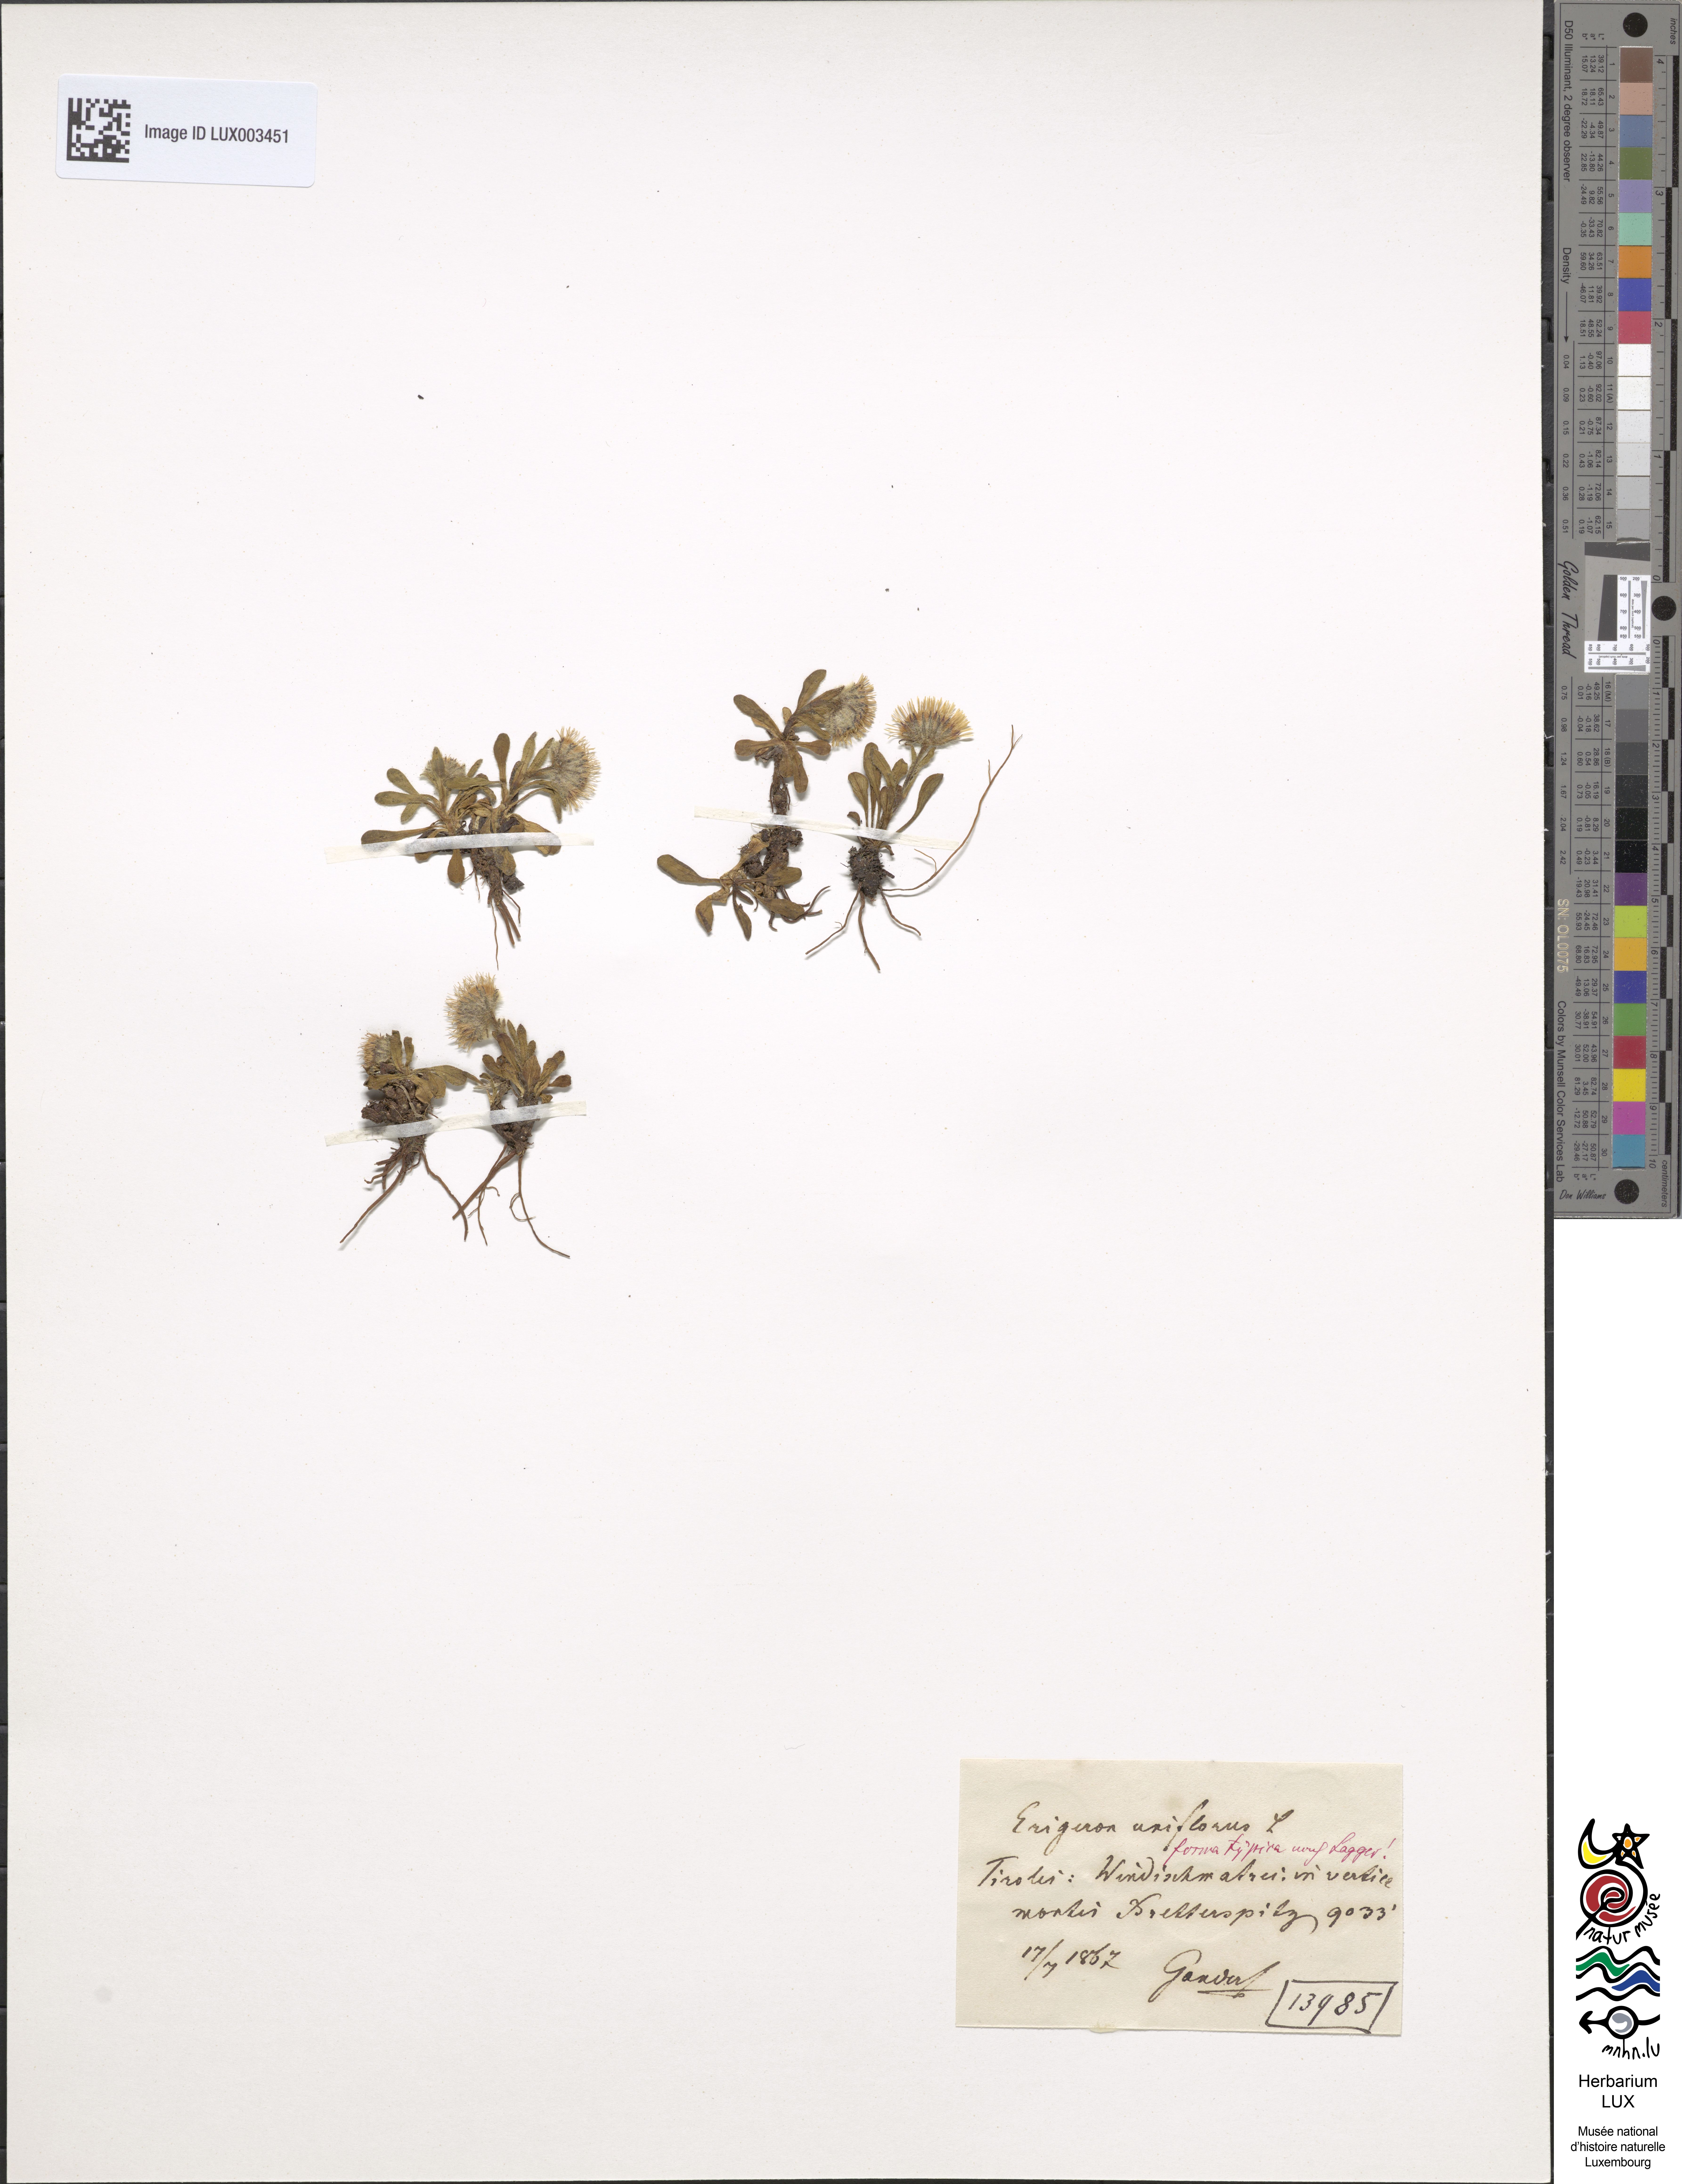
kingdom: Plantae
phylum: Tracheophyta
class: Magnoliopsida
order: Asterales
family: Asteraceae
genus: Erigeron
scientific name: Erigeron uniflorus
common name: Northern daisy
